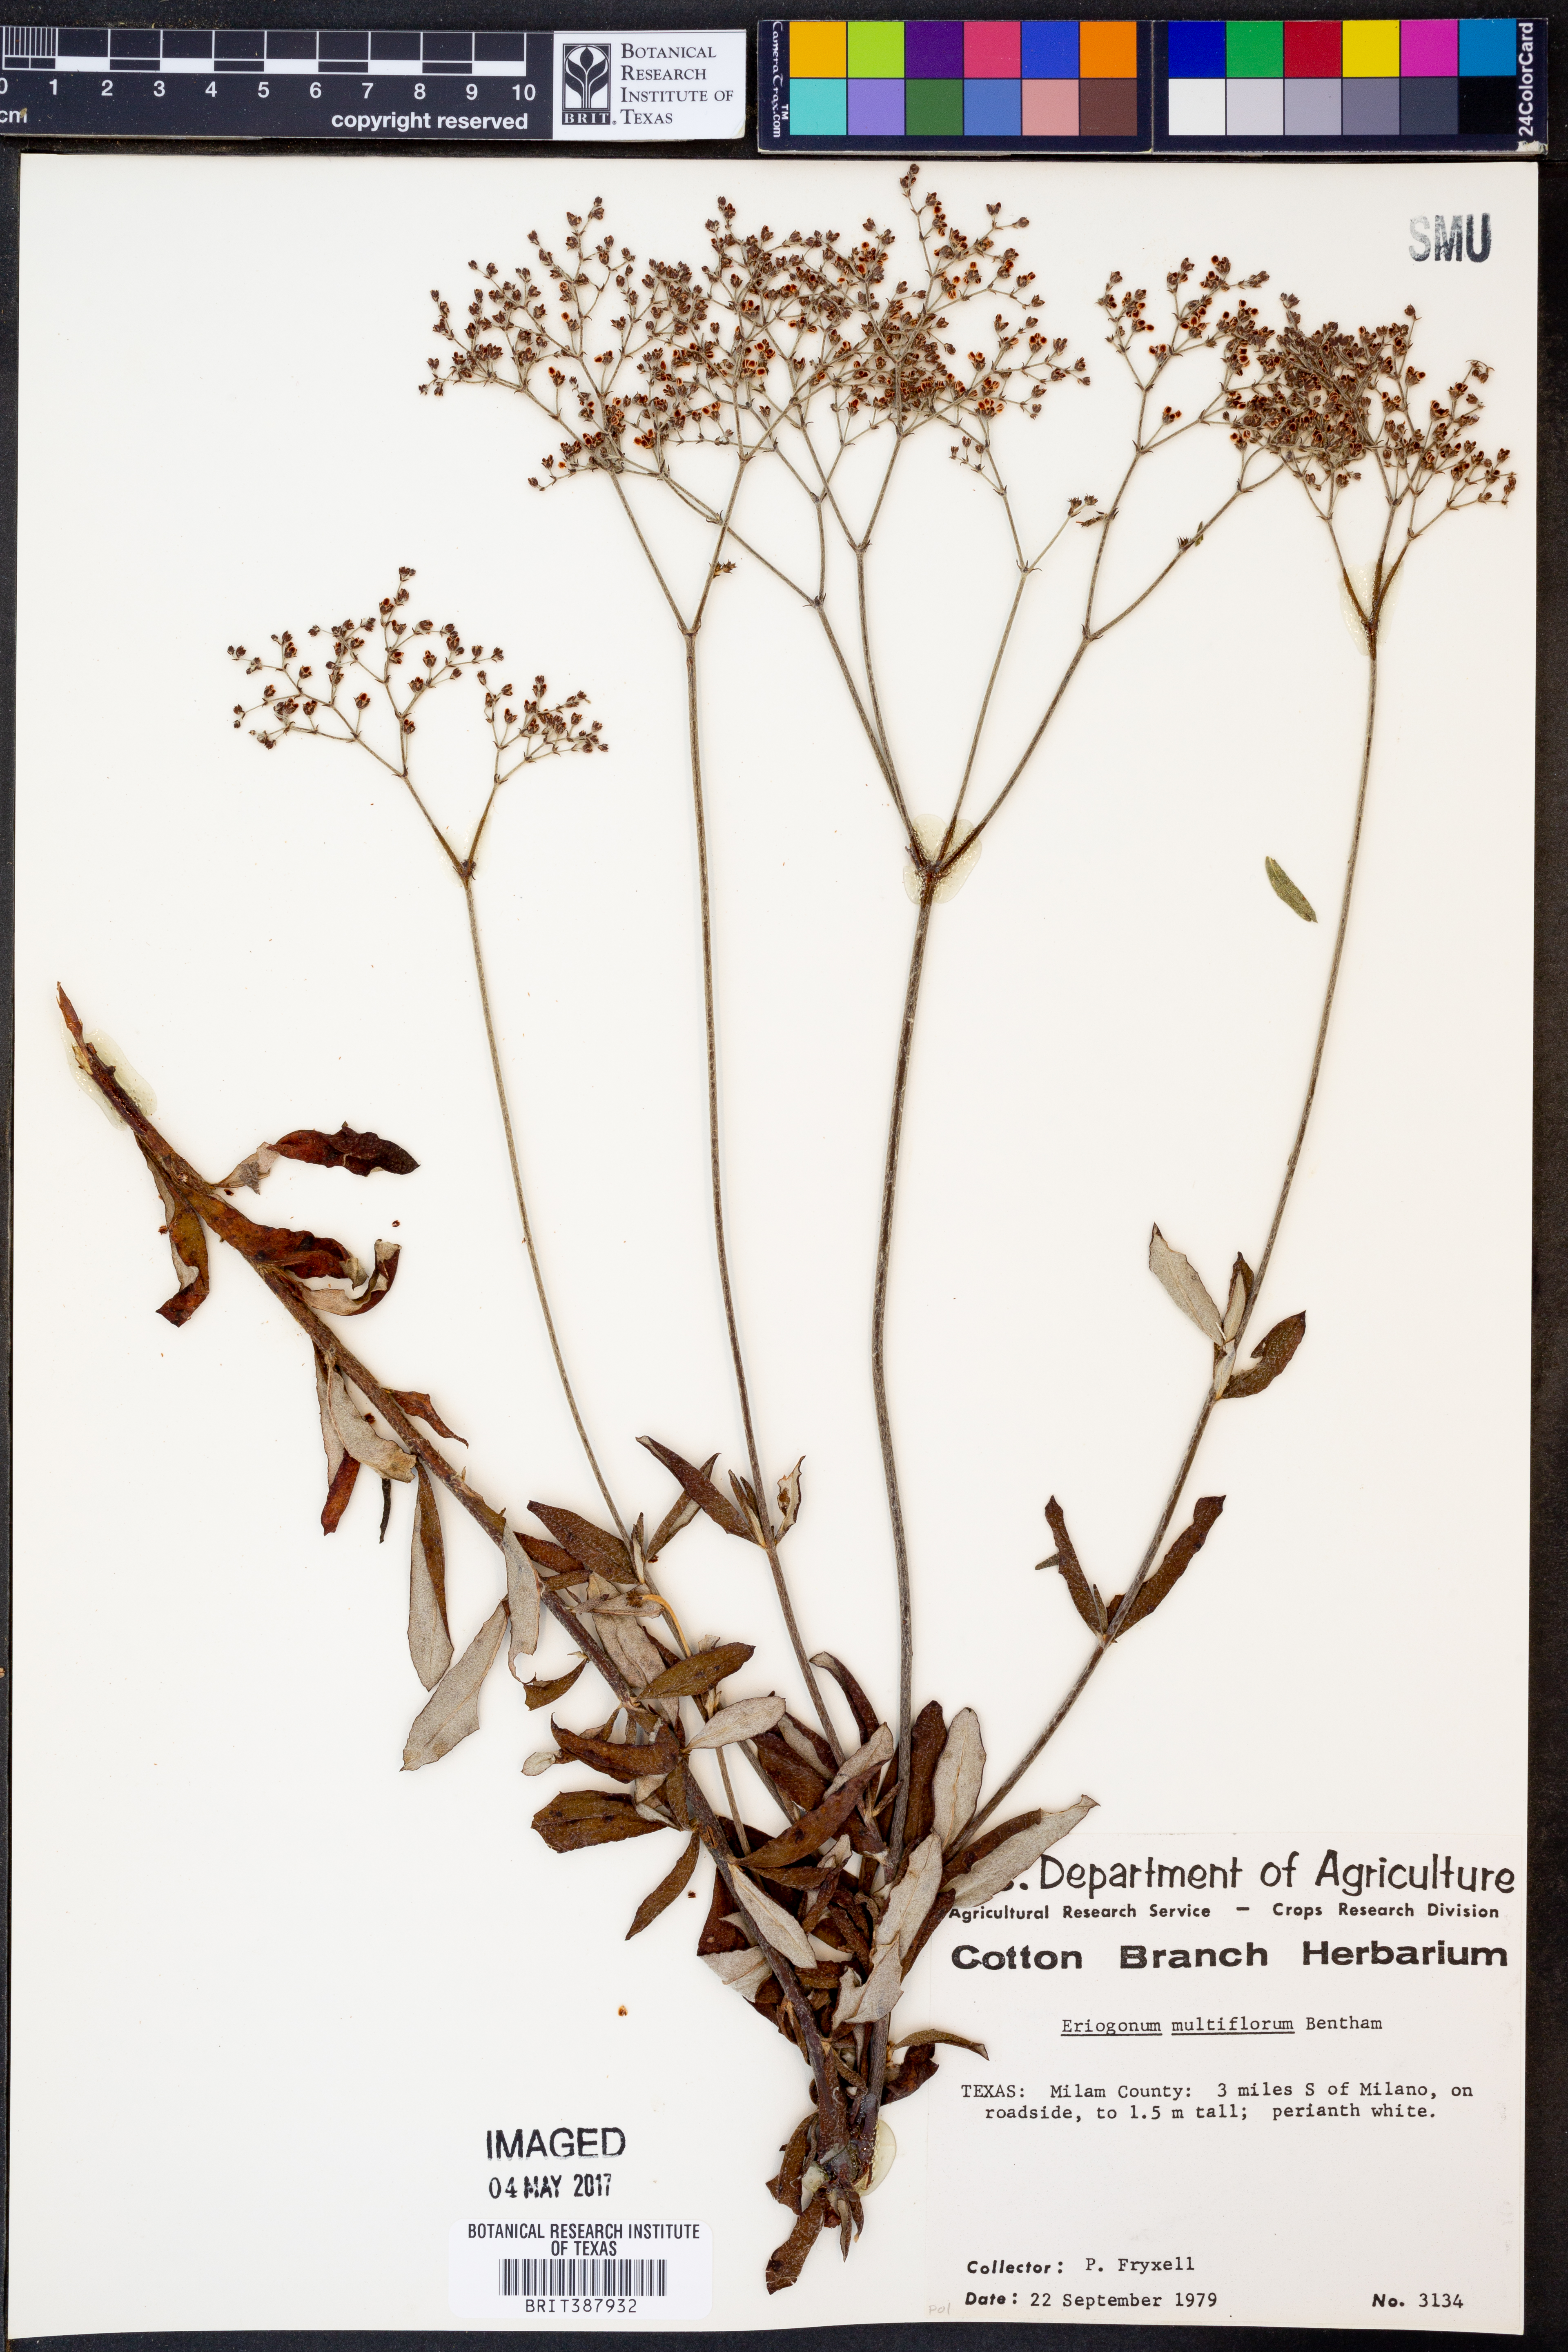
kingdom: Plantae
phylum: Tracheophyta
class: Magnoliopsida
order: Caryophyllales
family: Polygonaceae
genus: Eriogonum
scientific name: Eriogonum multiflorum
